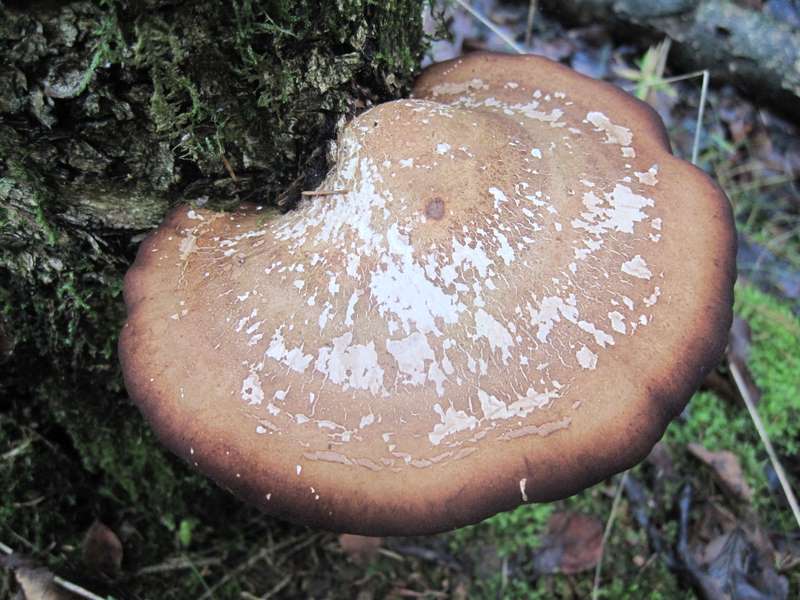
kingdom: Fungi
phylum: Basidiomycota
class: Agaricomycetes
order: Polyporales
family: Fomitopsidaceae
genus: Fomitopsis
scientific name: Fomitopsis betulina
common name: birkeporesvamp
